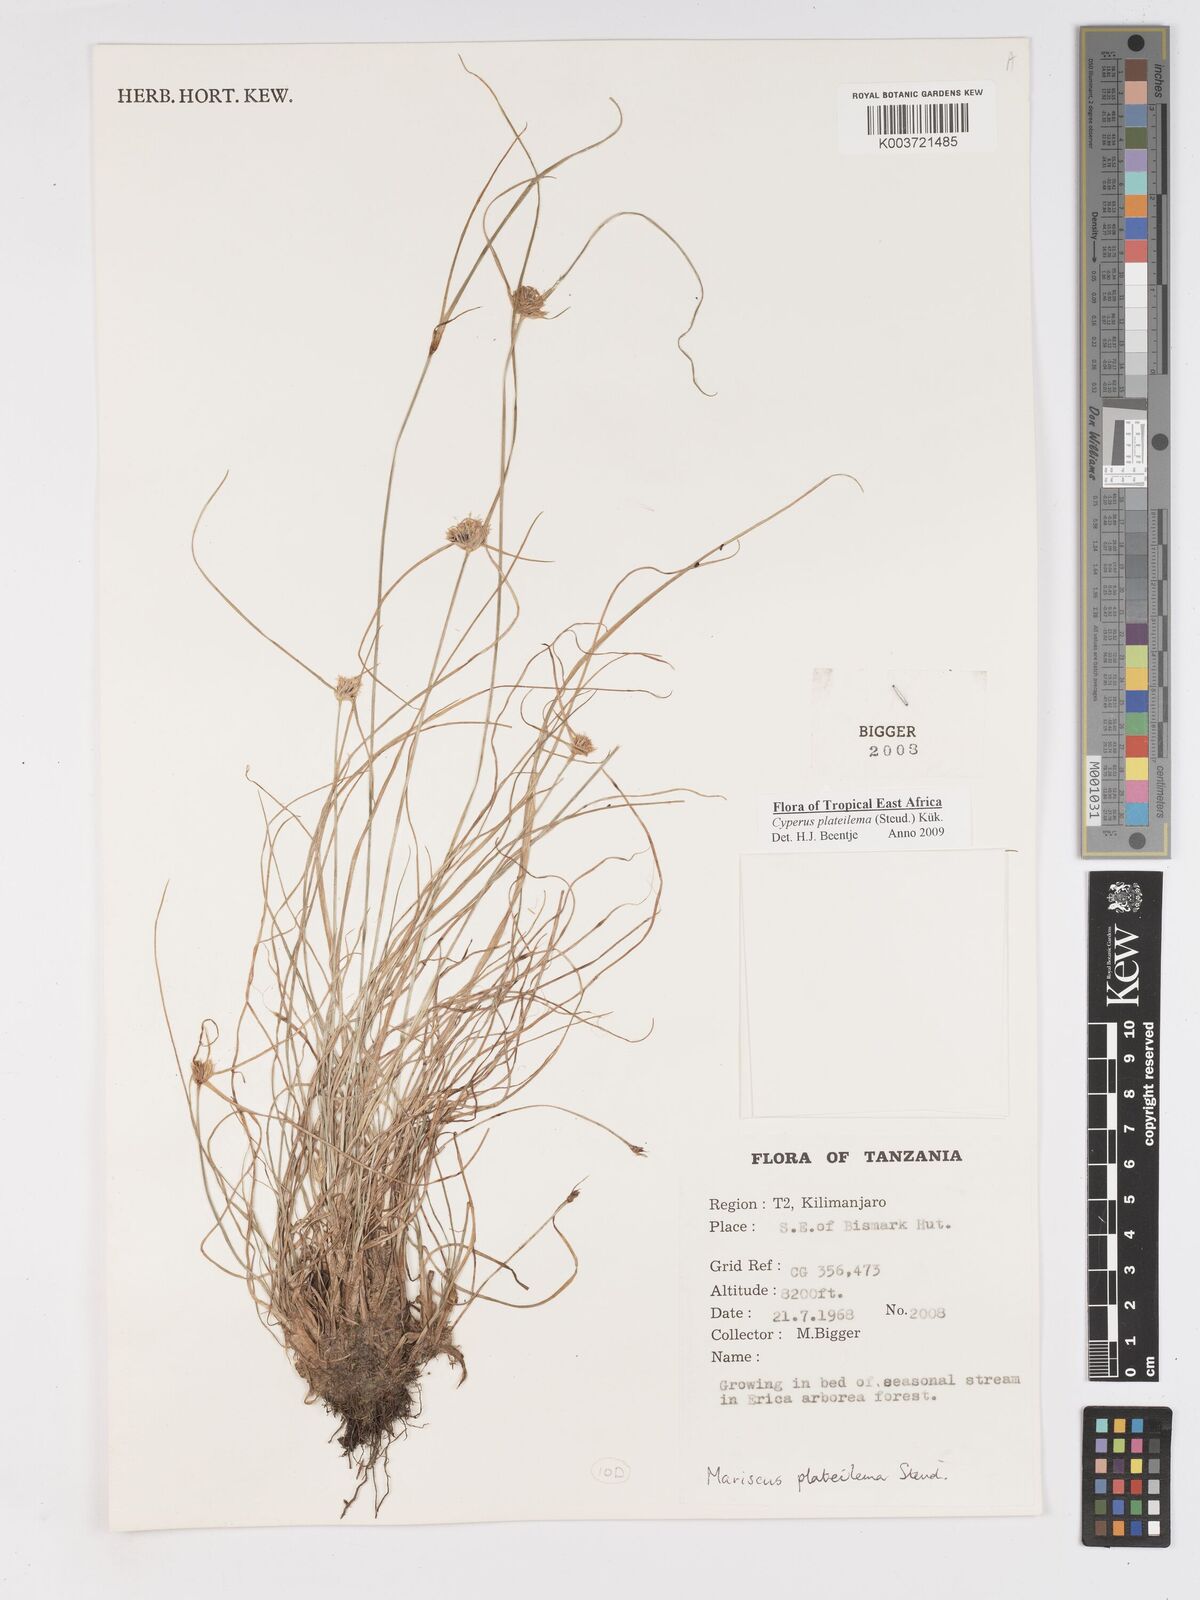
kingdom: Plantae
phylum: Tracheophyta
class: Liliopsida
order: Poales
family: Cyperaceae
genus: Cyperus
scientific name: Cyperus plateilema
